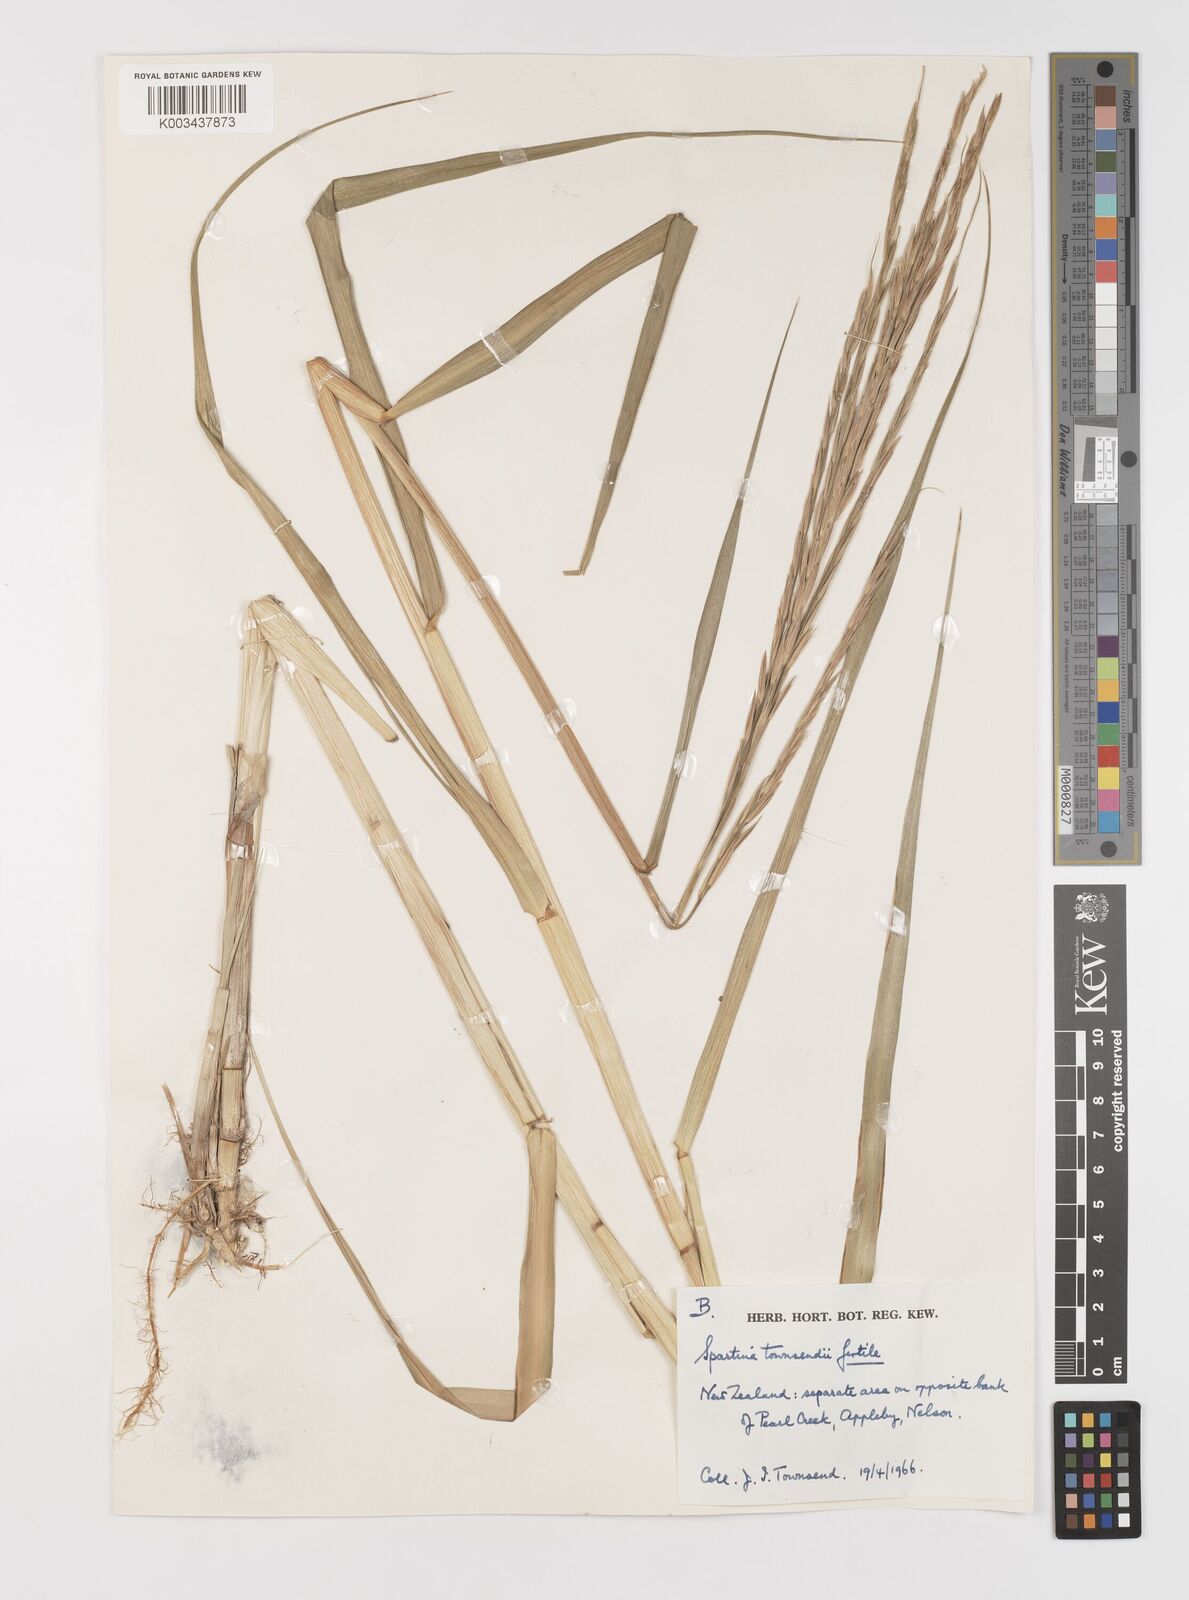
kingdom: Plantae
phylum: Tracheophyta
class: Liliopsida
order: Poales
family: Poaceae
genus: Sporobolus
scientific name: Sporobolus anglicus
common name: English cordgrass
